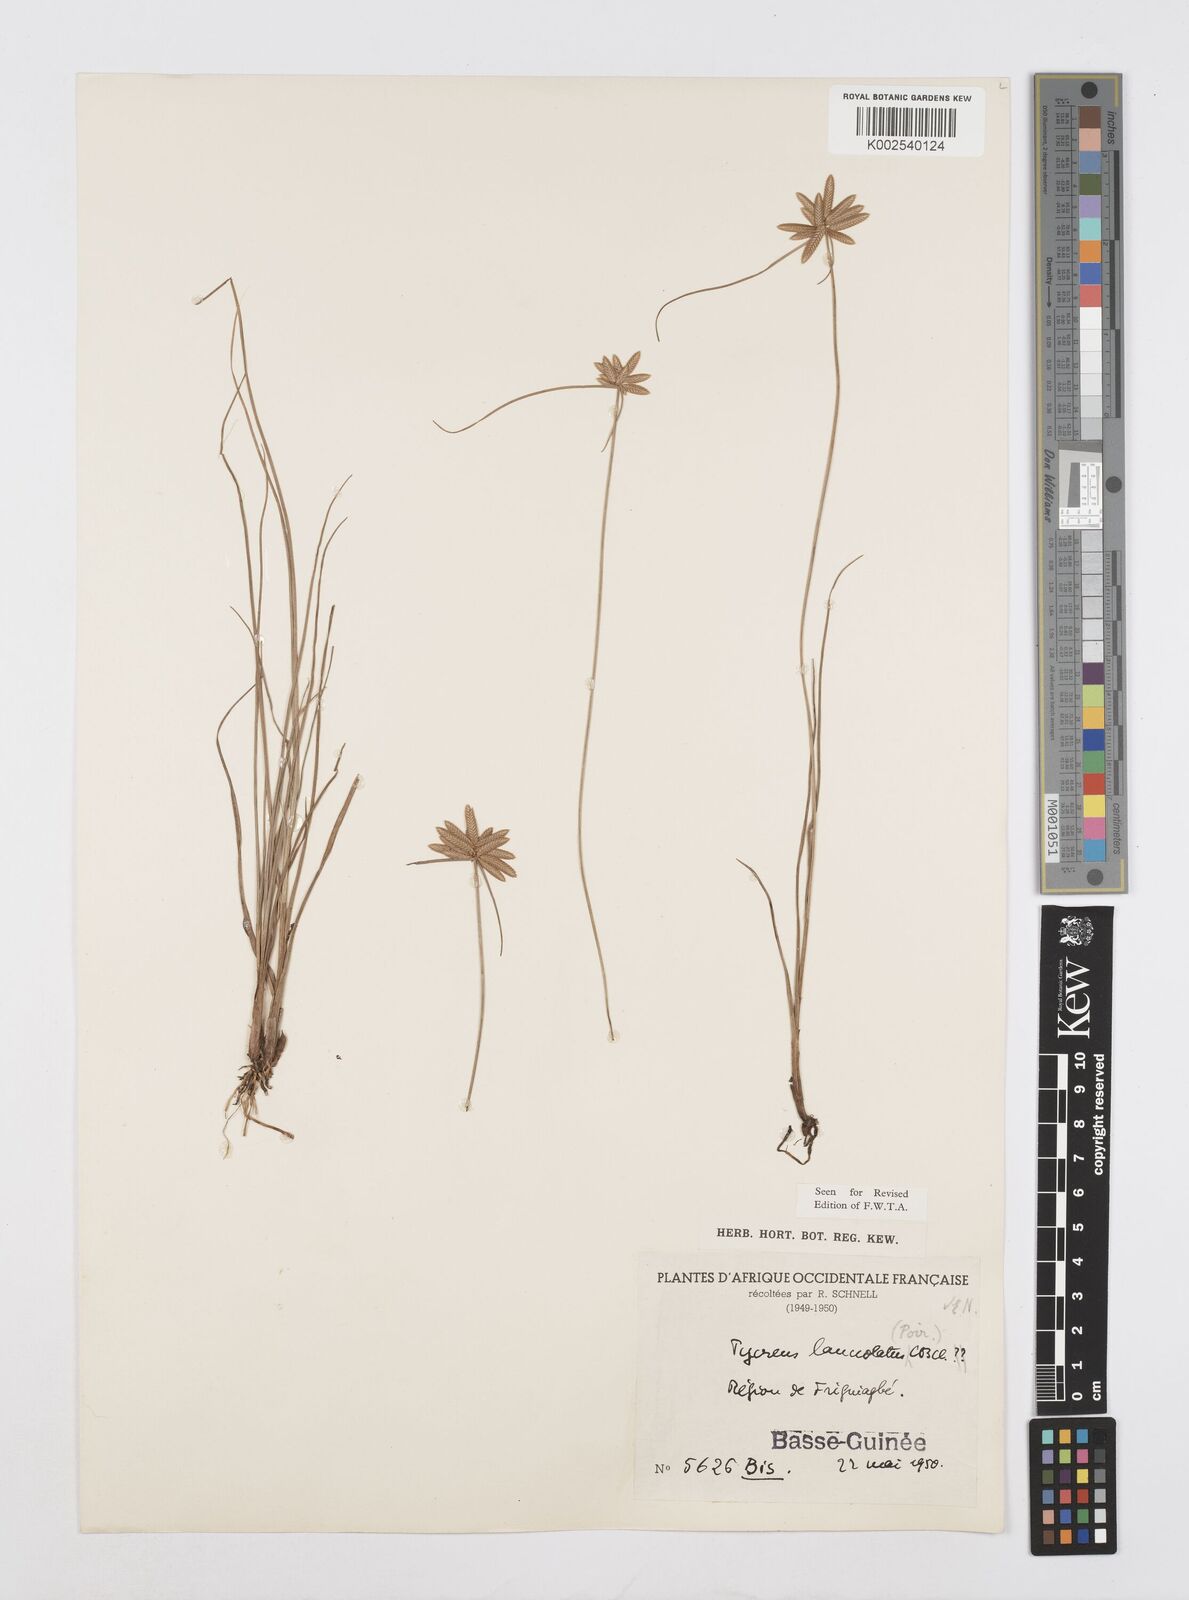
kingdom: Plantae
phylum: Tracheophyta
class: Liliopsida
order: Poales
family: Cyperaceae
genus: Cyperus
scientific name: Cyperus
